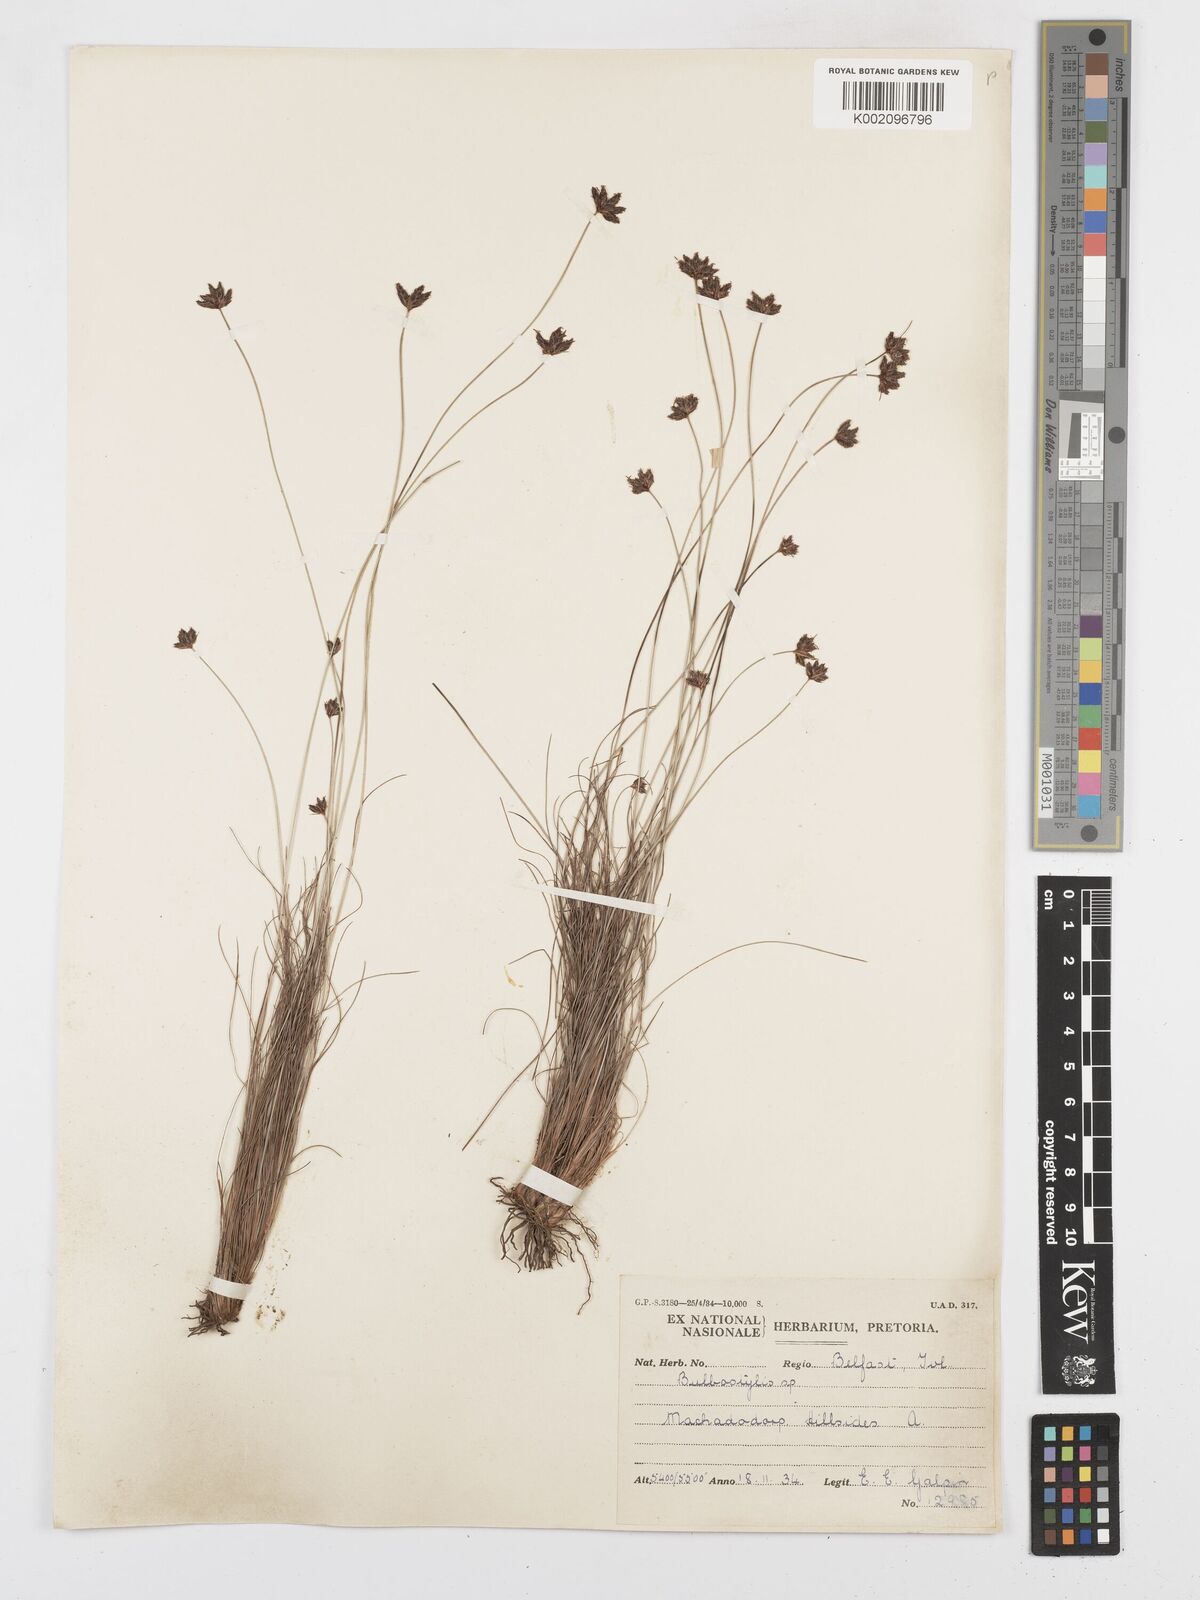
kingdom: Plantae
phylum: Tracheophyta
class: Liliopsida
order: Poales
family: Cyperaceae
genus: Bulbostylis
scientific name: Bulbostylis
